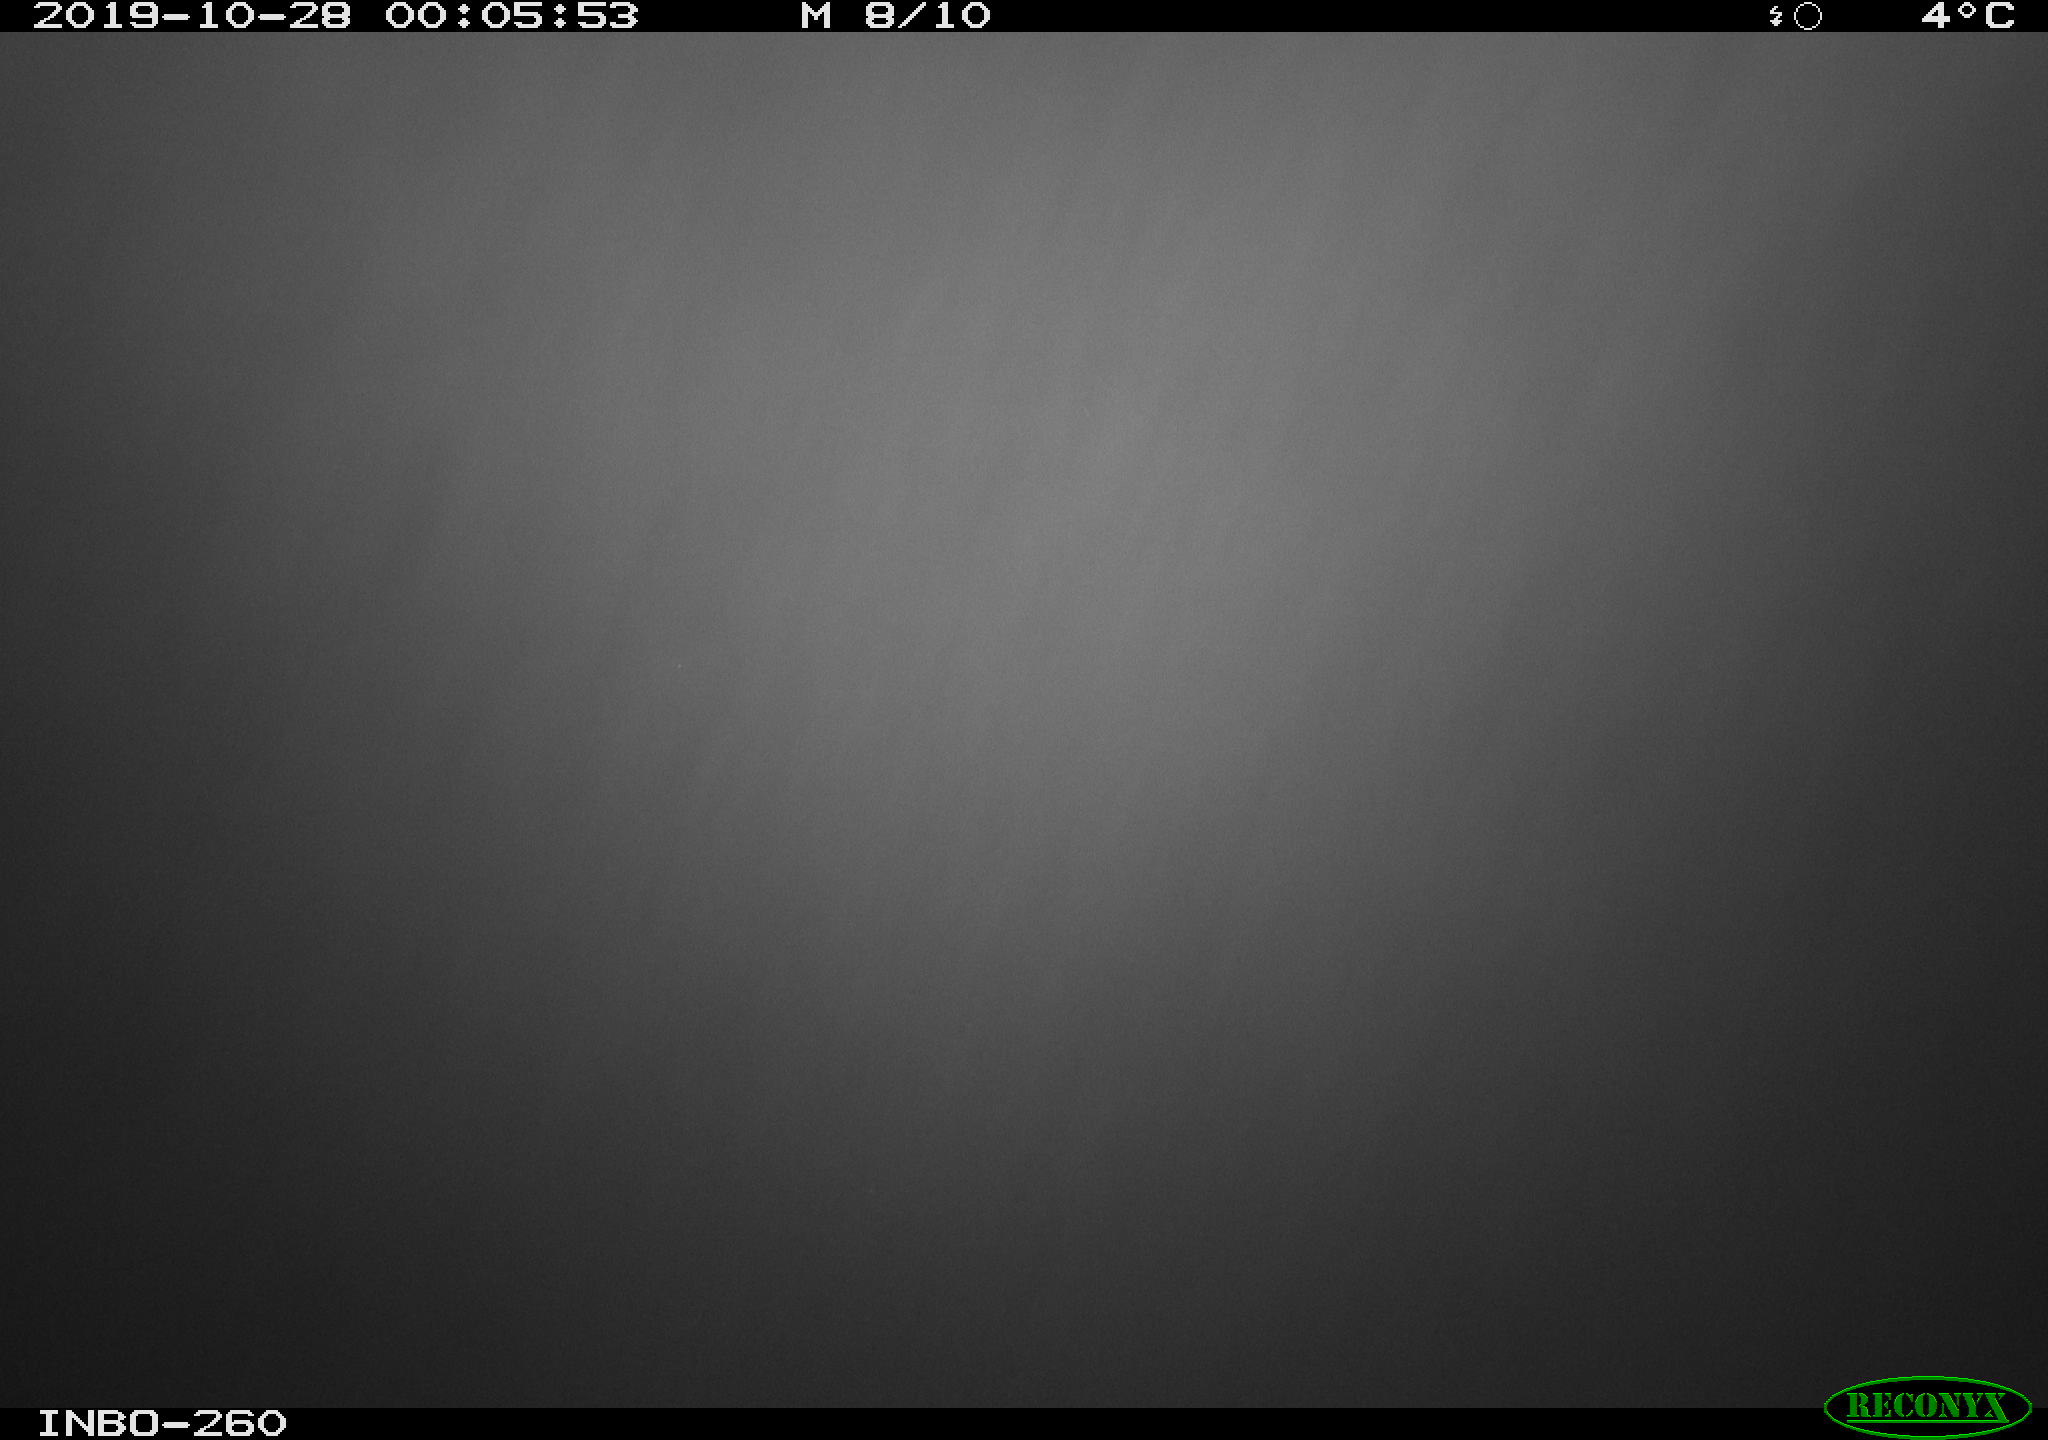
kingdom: Animalia
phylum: Chordata
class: Aves
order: Anseriformes
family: Anatidae
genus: Anas
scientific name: Anas platyrhynchos
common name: Mallard
